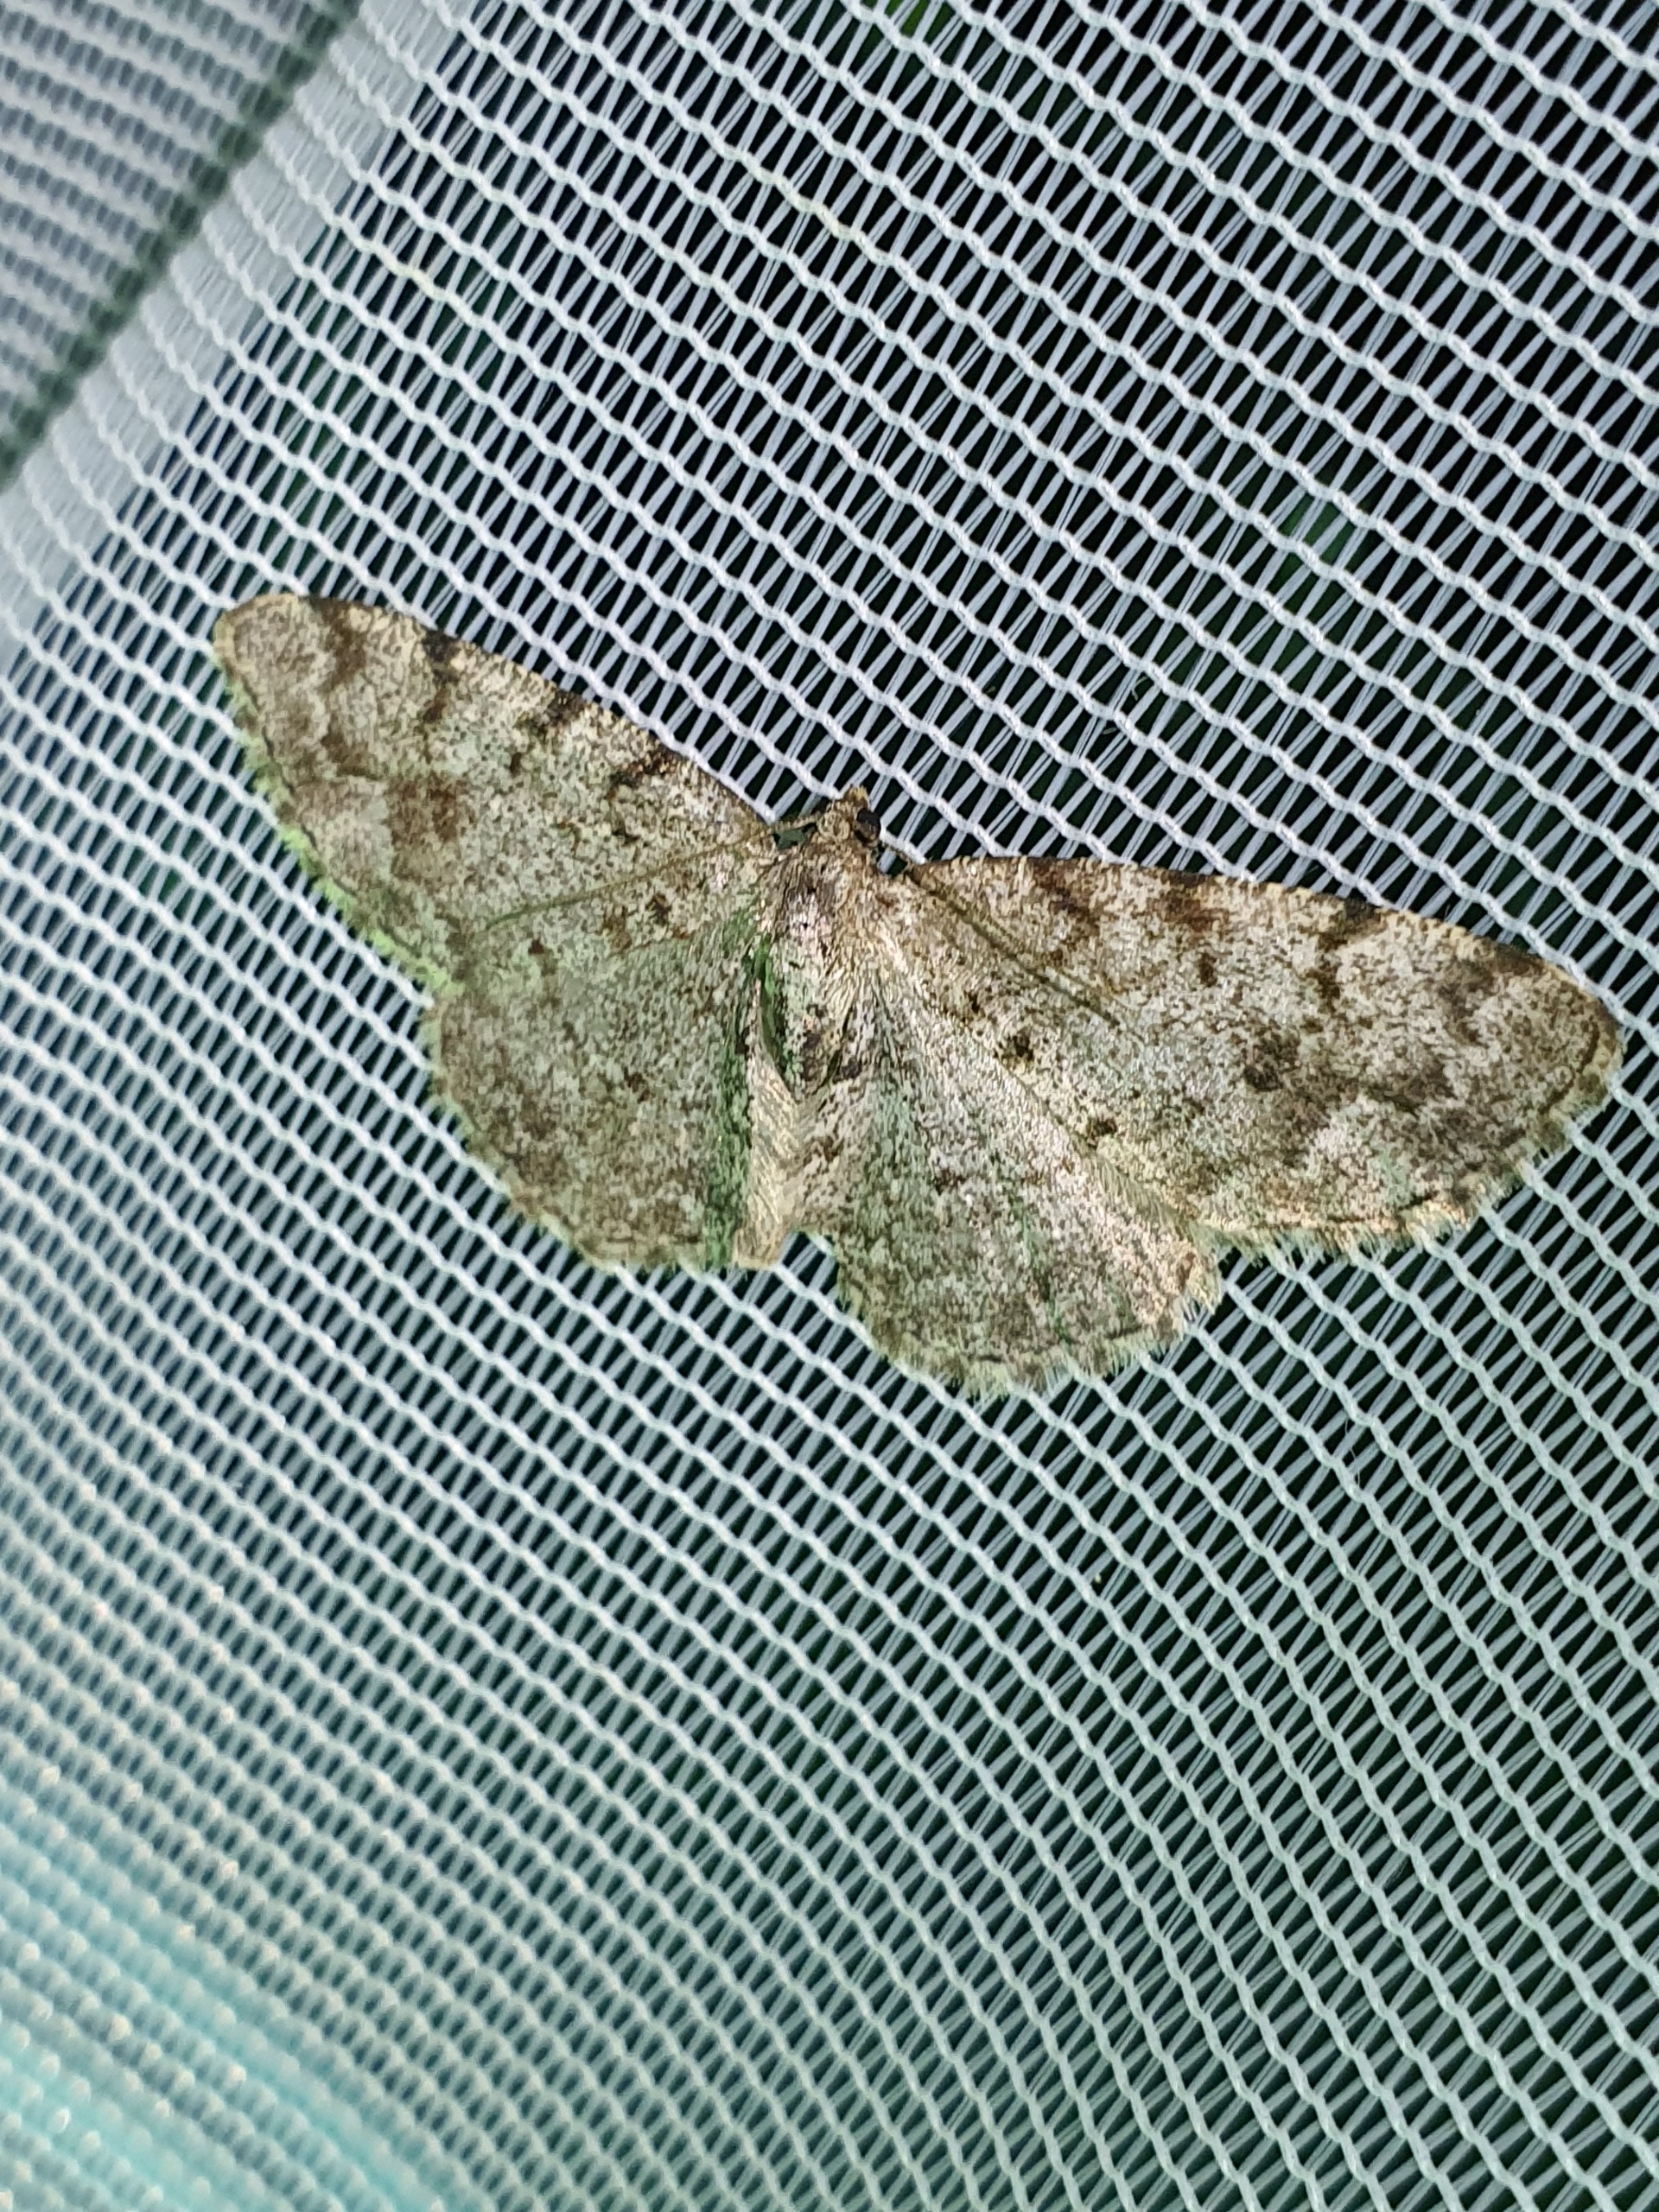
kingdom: Animalia
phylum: Arthropoda
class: Insecta
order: Lepidoptera
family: Geometridae
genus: Aethalura
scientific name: Aethalura punctulata
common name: Elle-barkmåler
